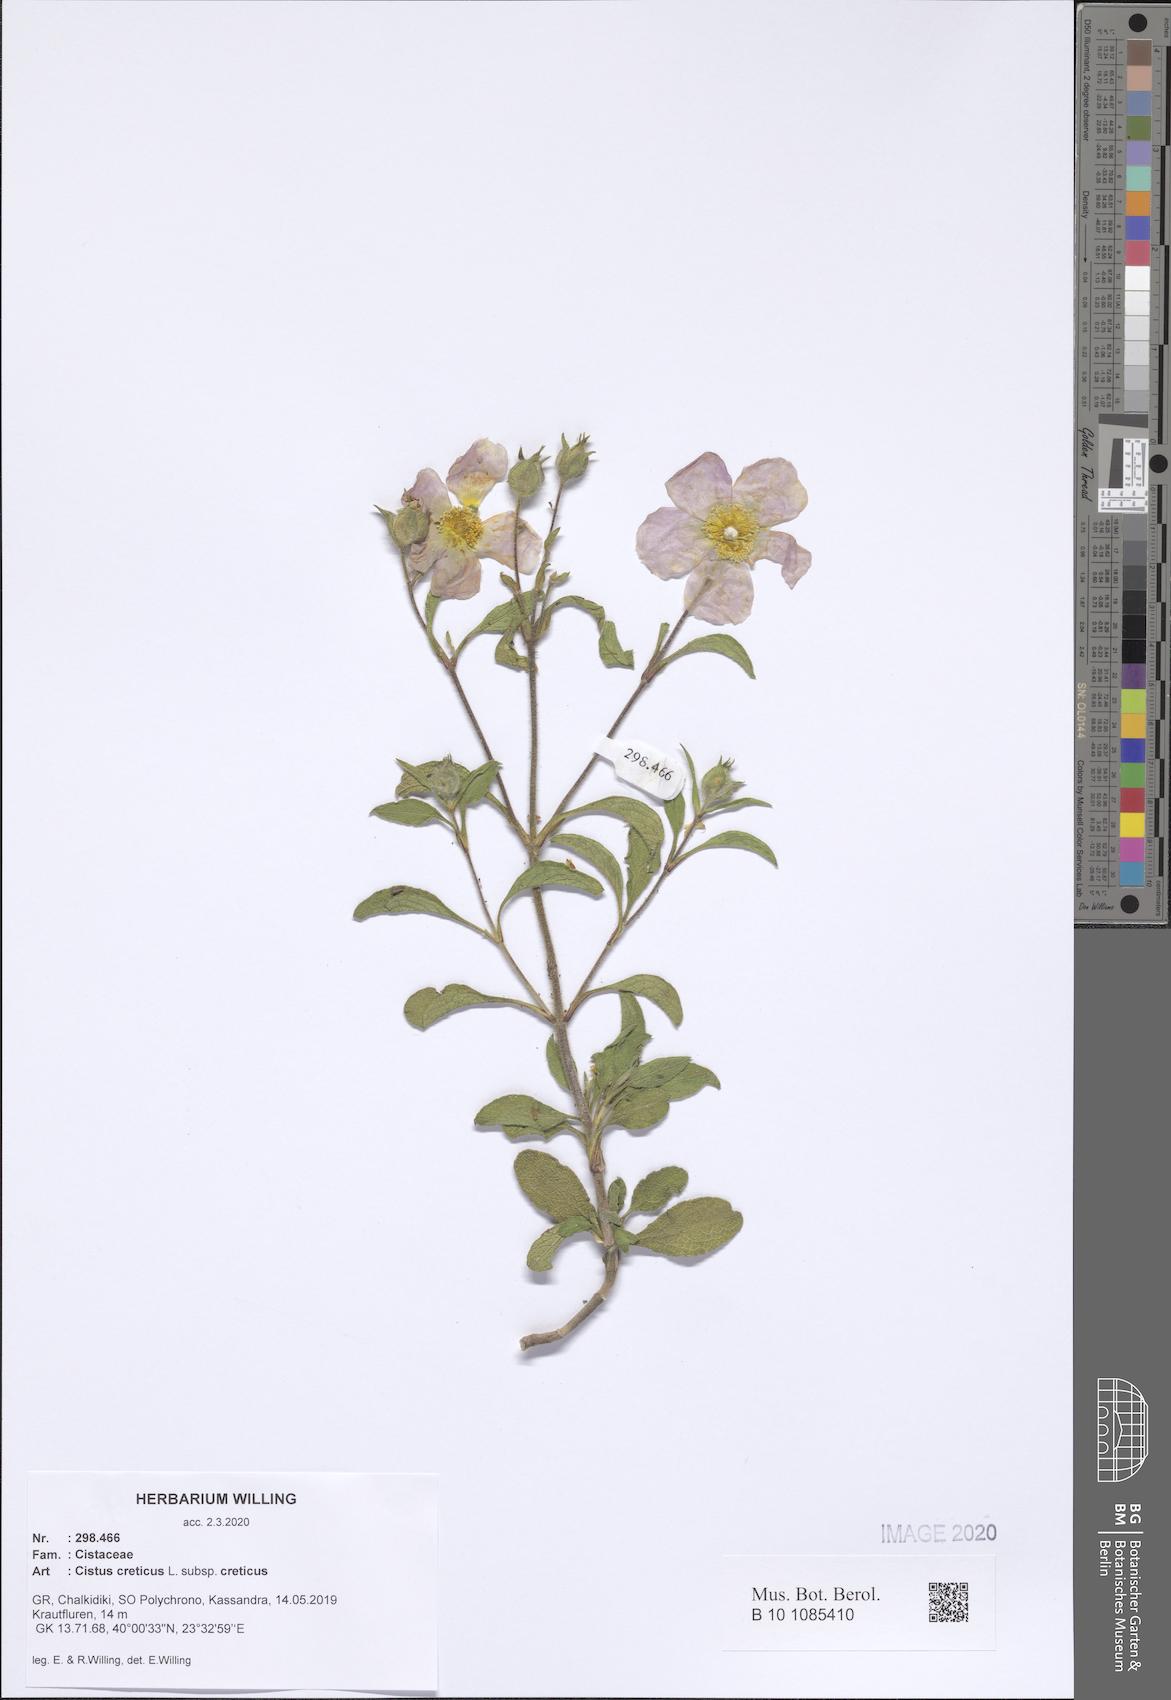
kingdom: Plantae
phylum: Tracheophyta
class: Magnoliopsida
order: Malvales
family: Cistaceae
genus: Cistus
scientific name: Cistus creticus
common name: Cretan rockrose
